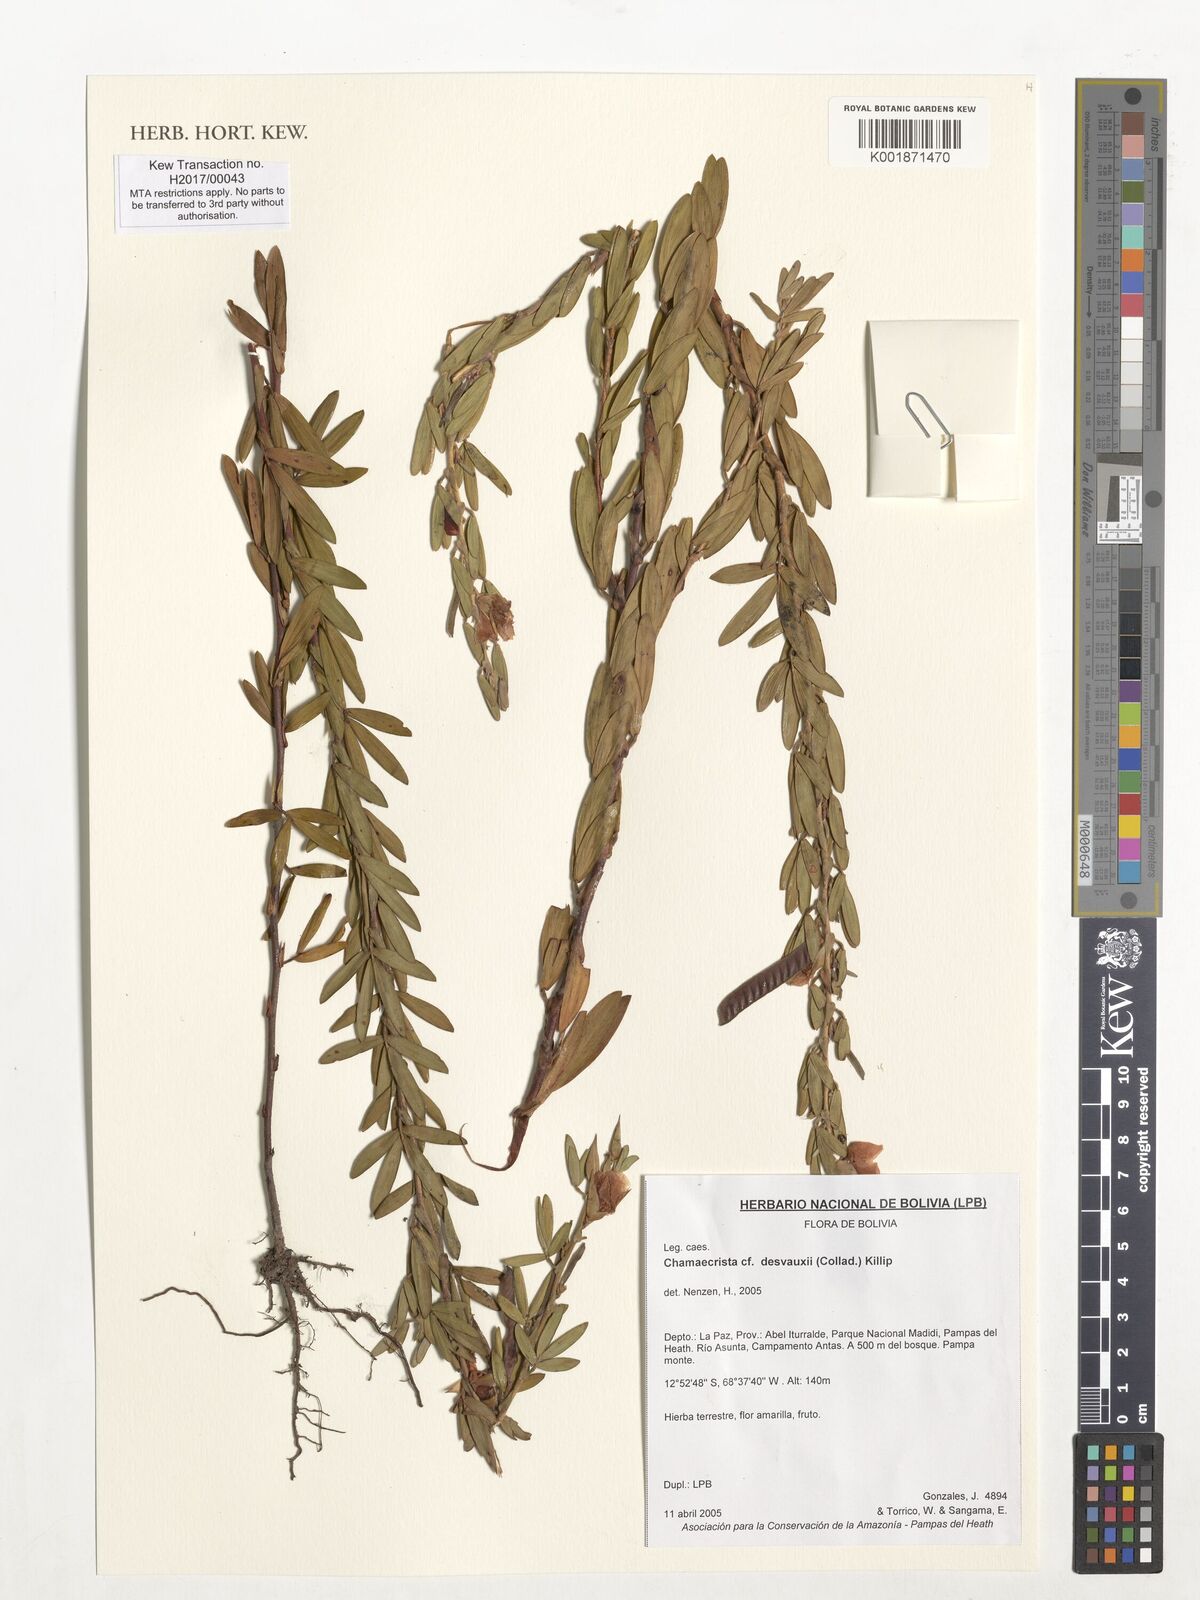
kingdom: Plantae
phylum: Tracheophyta
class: Magnoliopsida
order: Fabales
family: Fabaceae
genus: Chamaecrista
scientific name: Chamaecrista desvauxii
